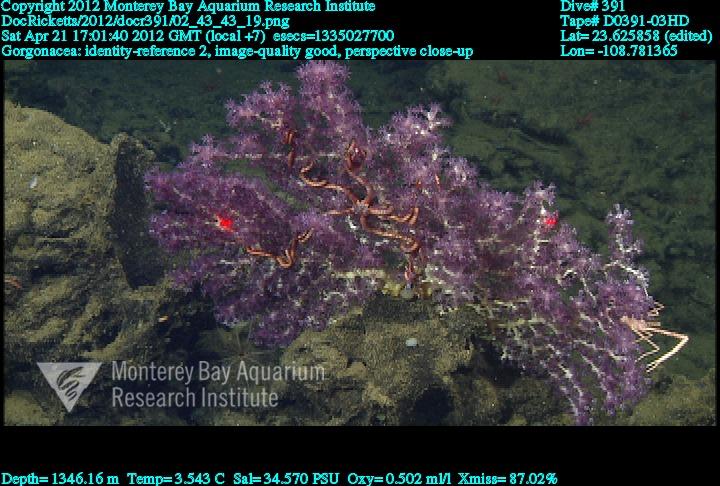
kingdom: Animalia
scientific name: Animalia
